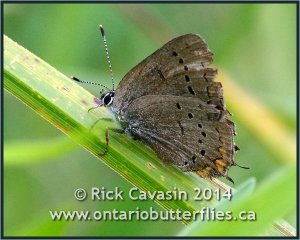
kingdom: Animalia
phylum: Arthropoda
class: Insecta
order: Lepidoptera
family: Lycaenidae
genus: Strymon
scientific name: Strymon acadica
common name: Acadian Hairstreak
